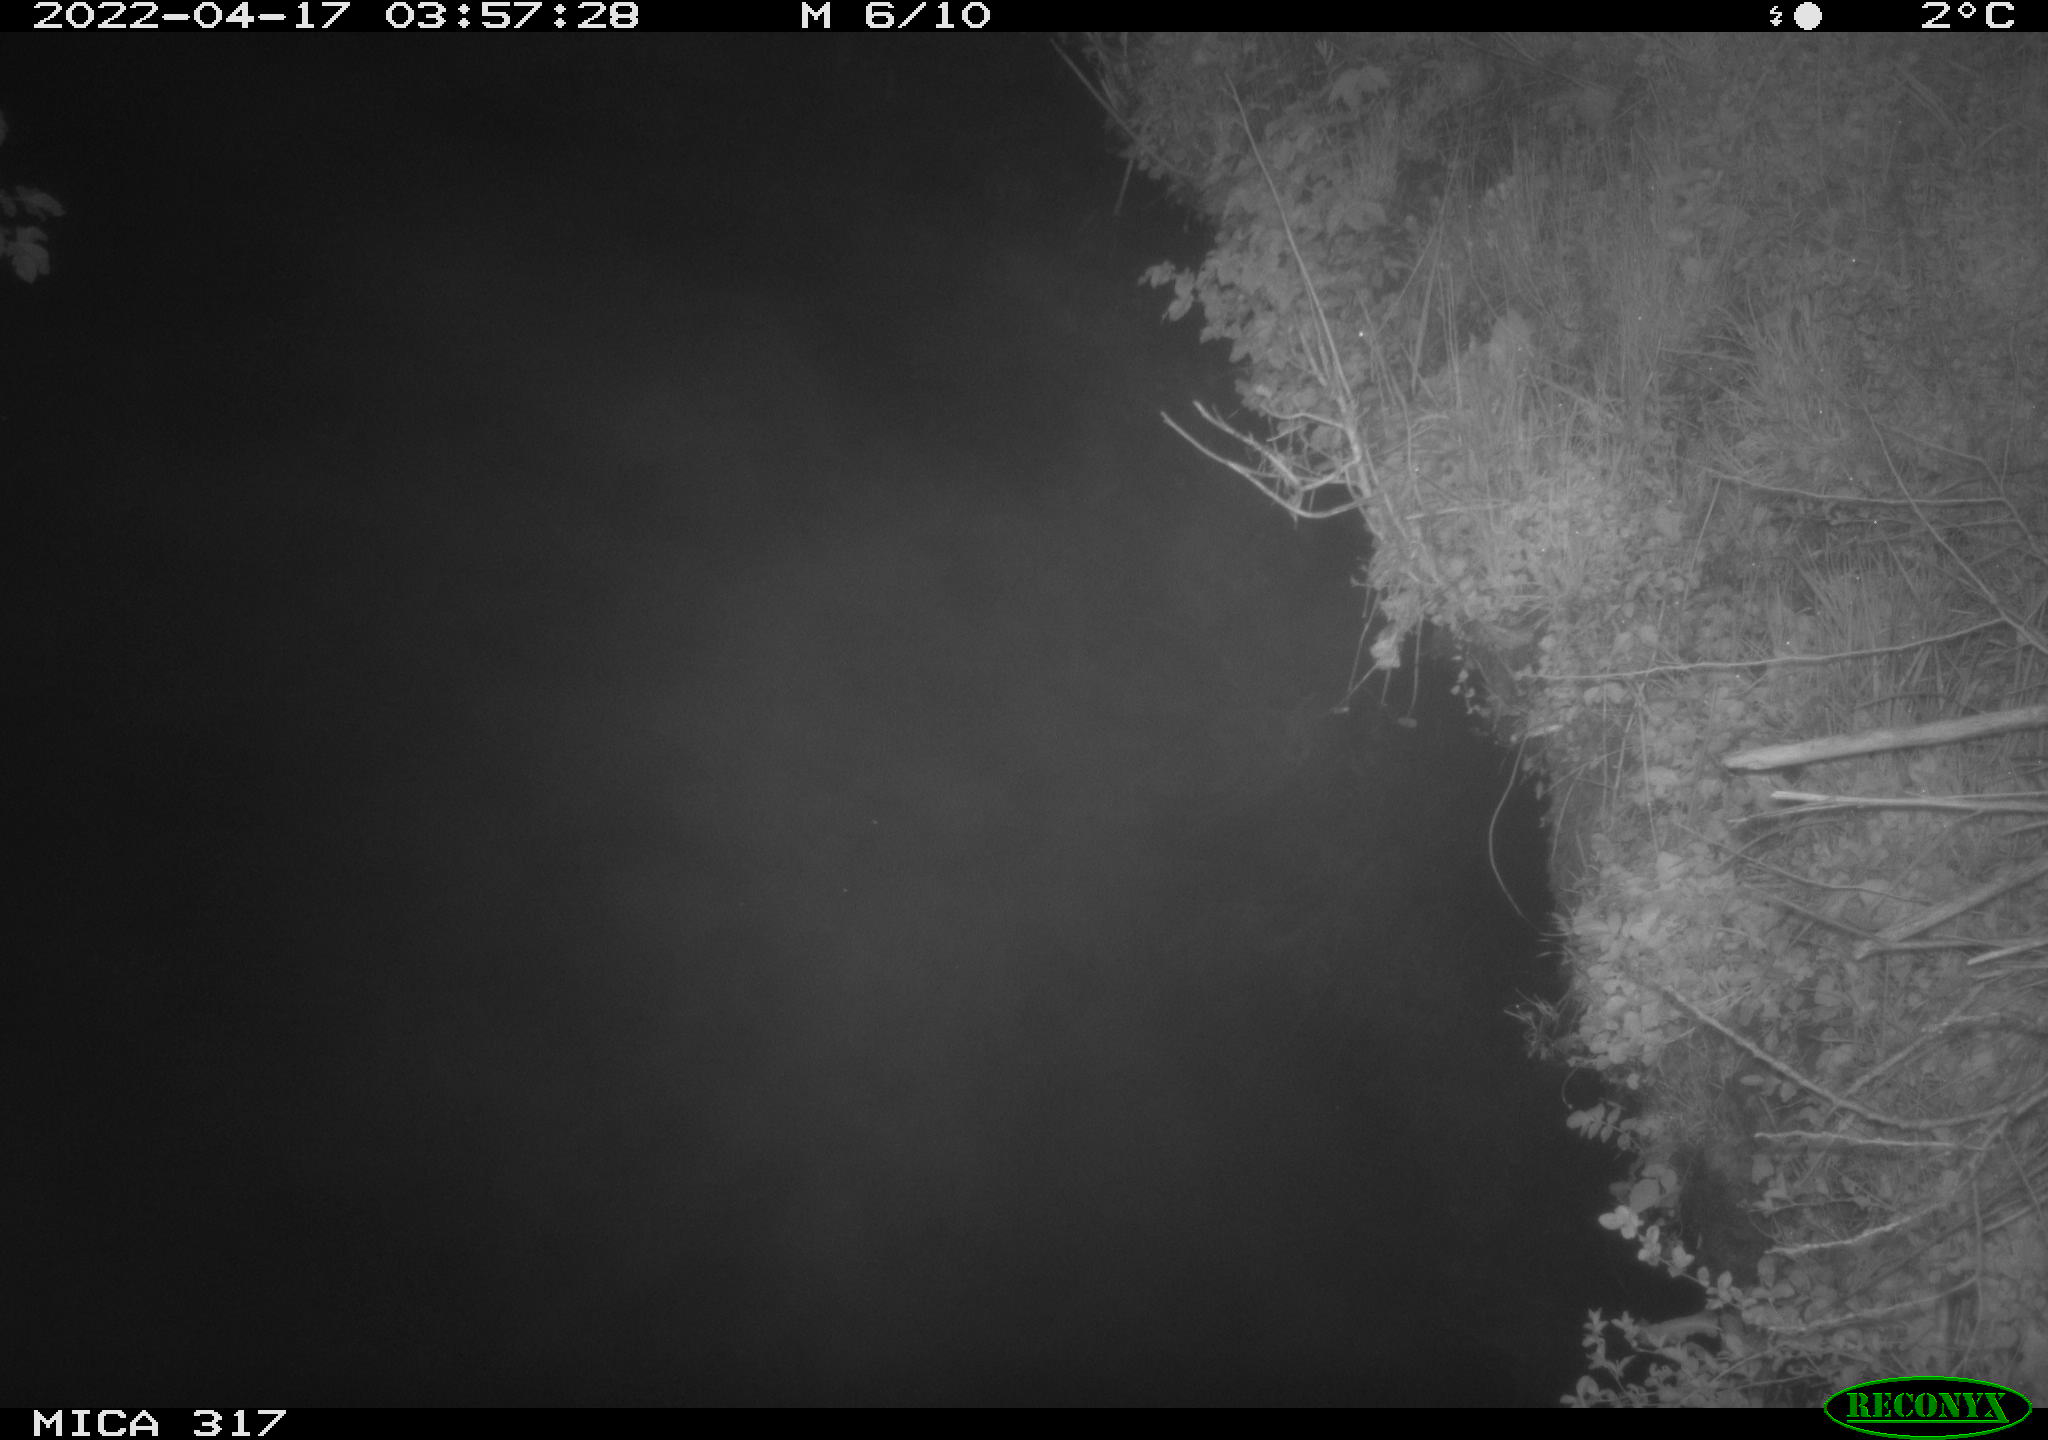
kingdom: Animalia
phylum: Chordata
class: Aves
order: Anseriformes
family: Anatidae
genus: Anas
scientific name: Anas platyrhynchos
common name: Mallard
